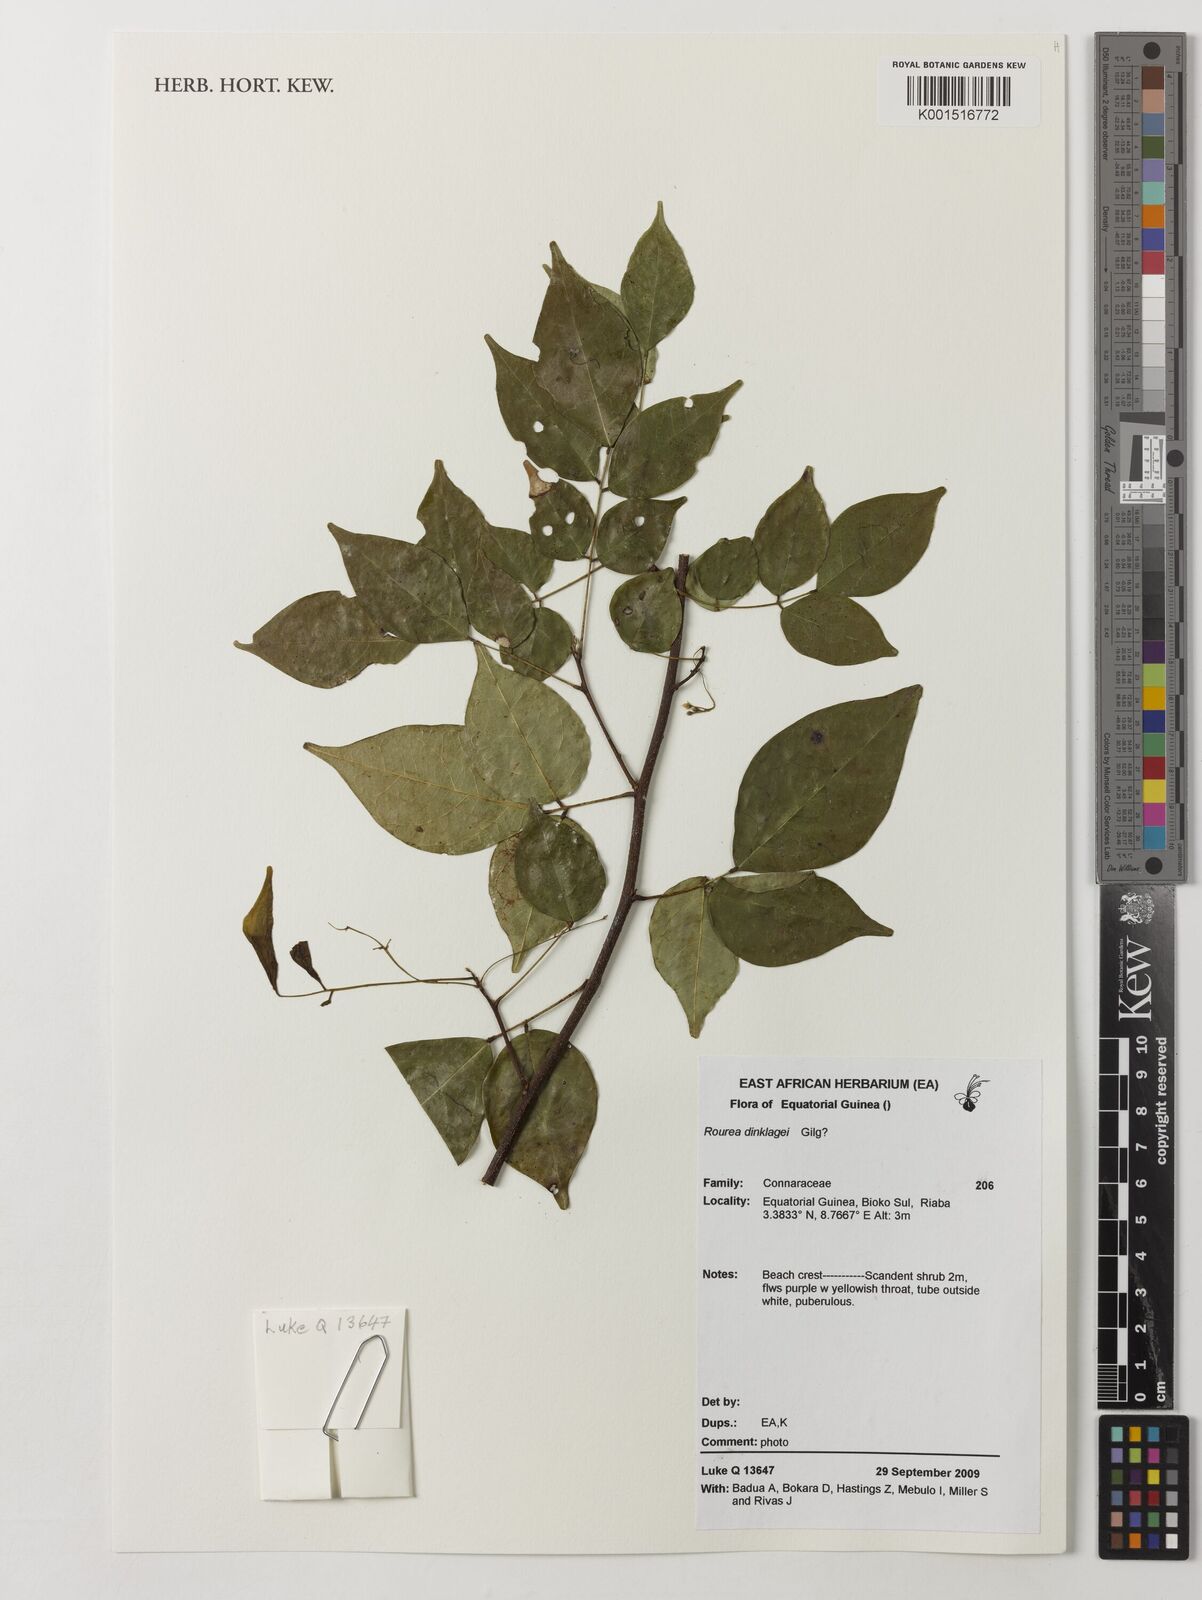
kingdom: Plantae
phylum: Tracheophyta
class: Magnoliopsida
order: Oxalidales
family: Connaraceae
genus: Rourea
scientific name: Rourea coccinea
